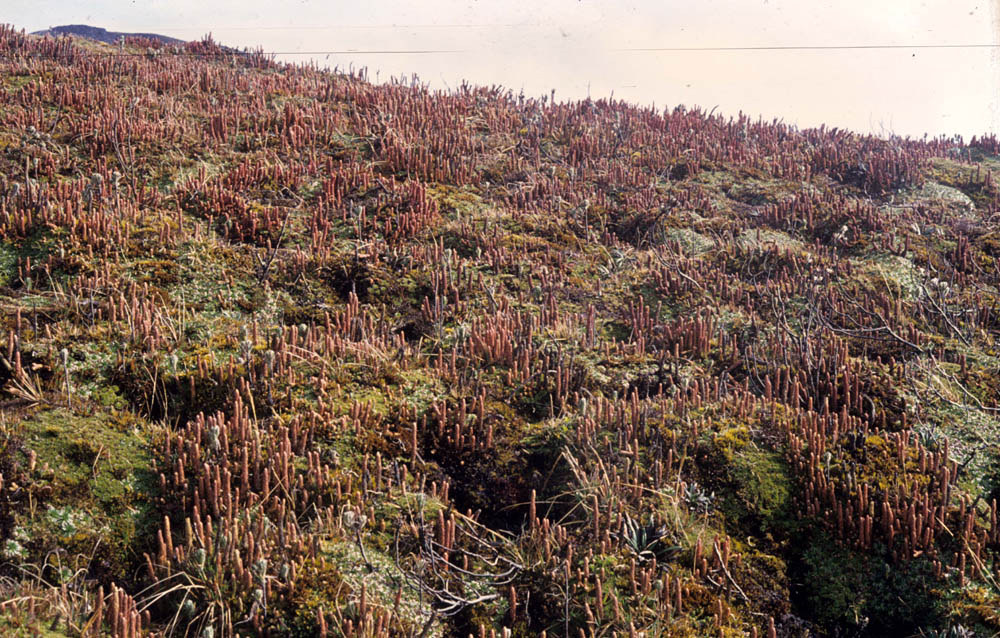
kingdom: Plantae
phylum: Tracheophyta
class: Lycopodiopsida
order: Lycopodiales
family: Lycopodiaceae
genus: Phlegmariurus
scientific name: Phlegmariurus crassus
